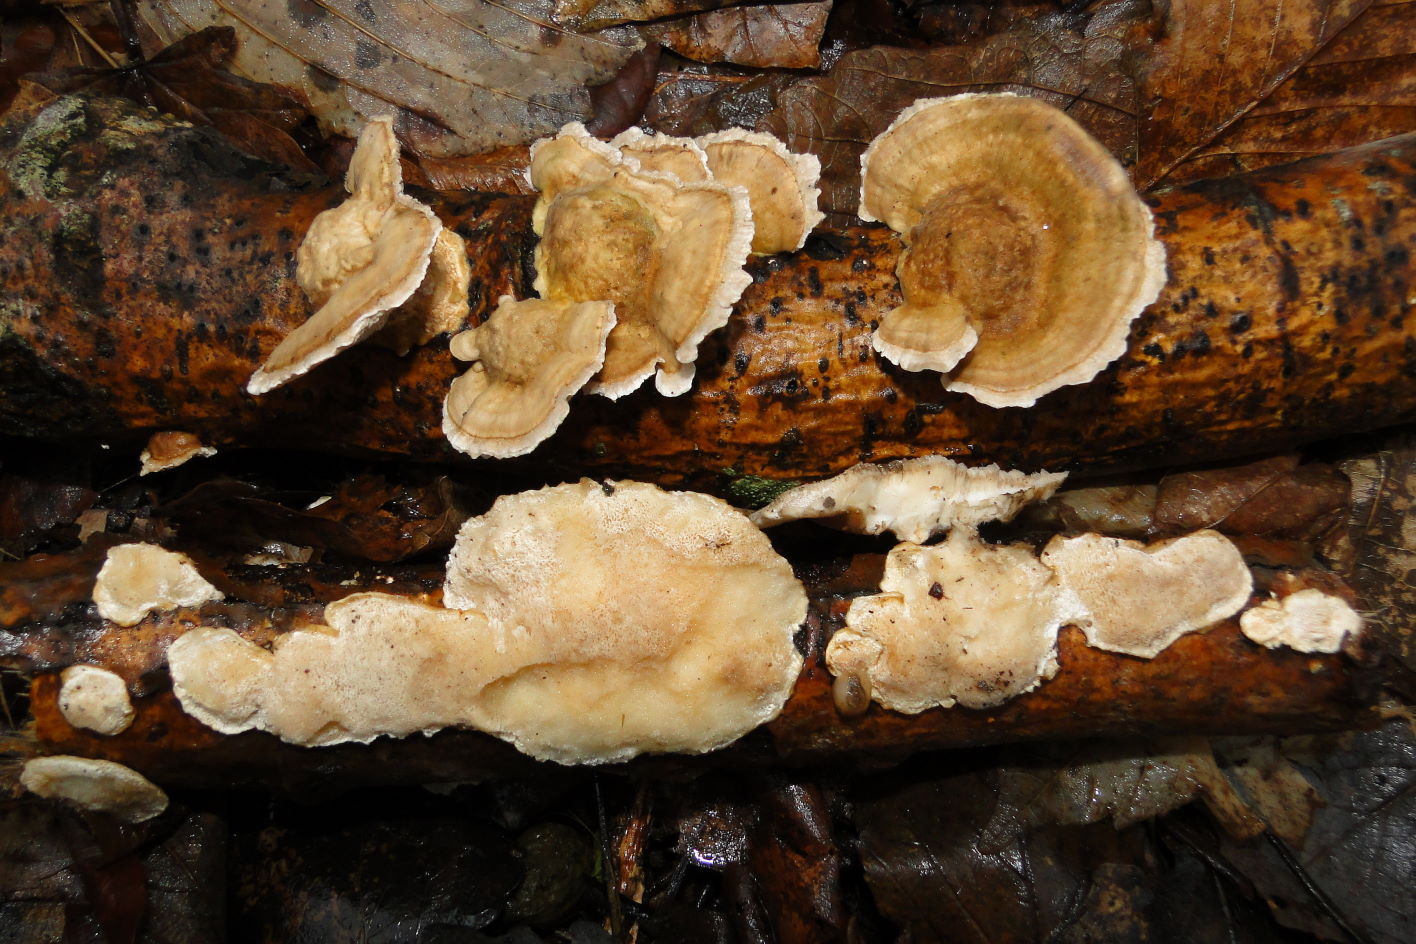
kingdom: Fungi
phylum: Basidiomycota
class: Agaricomycetes
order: Polyporales
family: Polyporaceae
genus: Trametes
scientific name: Trametes ochracea
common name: bæltet læderporesvamp
